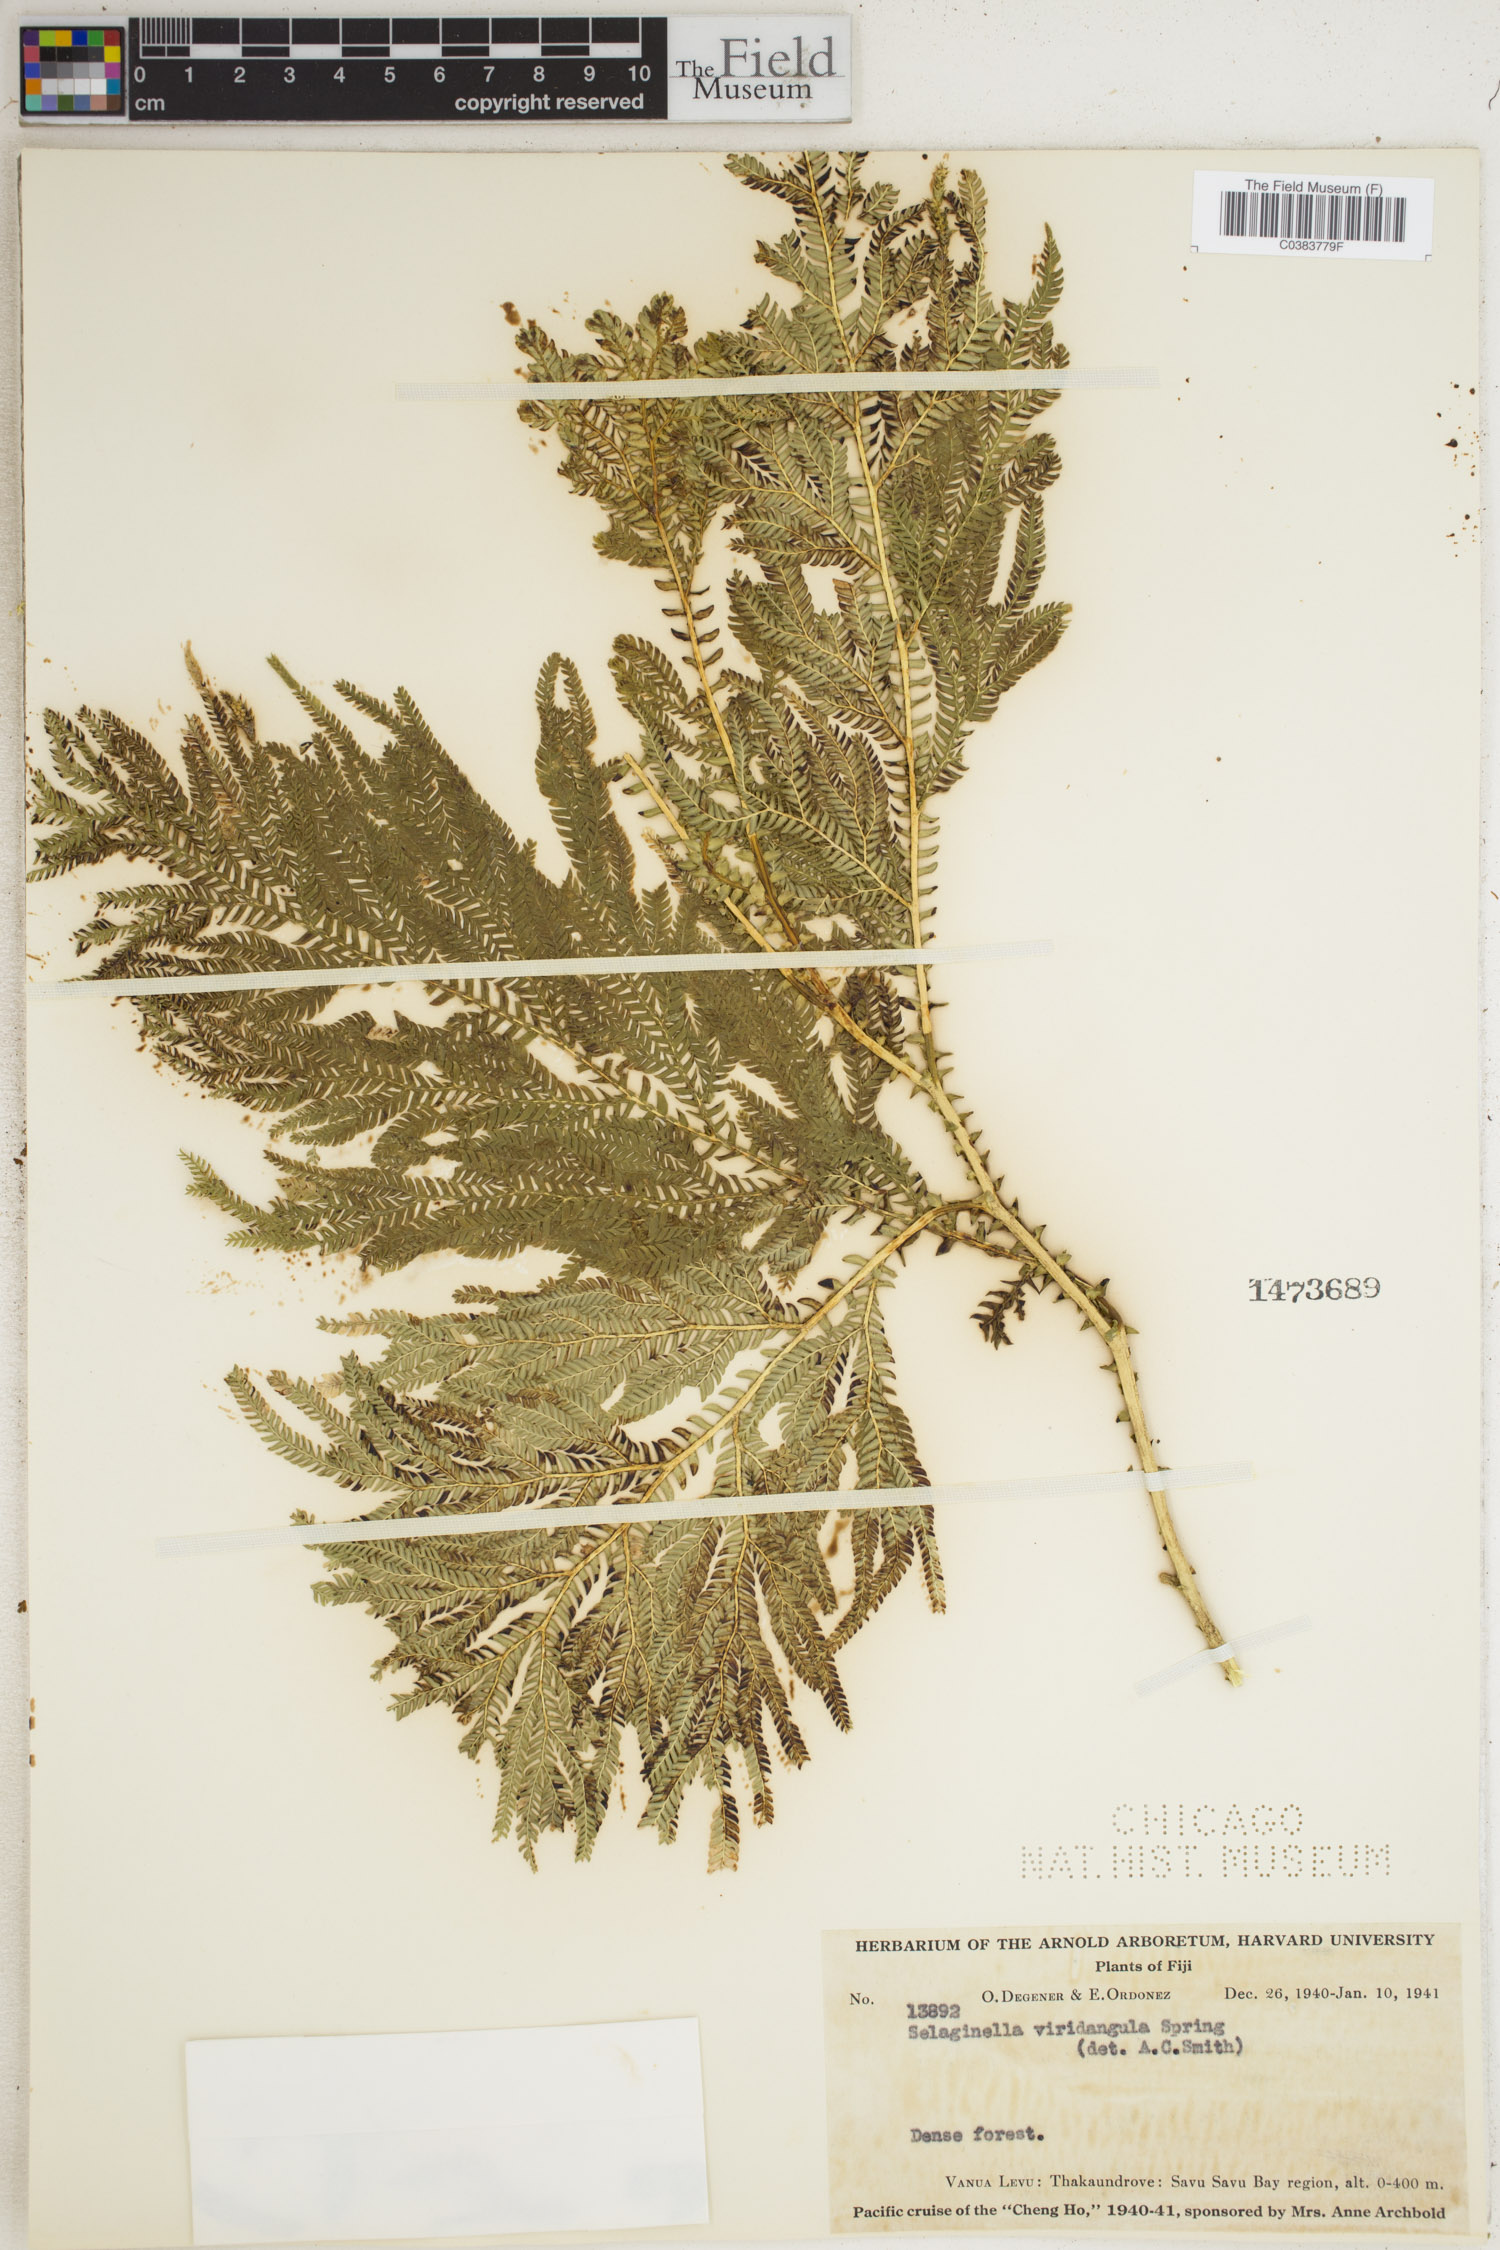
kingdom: Plantae
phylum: Tracheophyta
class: Lycopodiopsida
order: Selaginellales
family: Selaginellaceae
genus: Selaginella
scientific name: Selaginella viridangula
